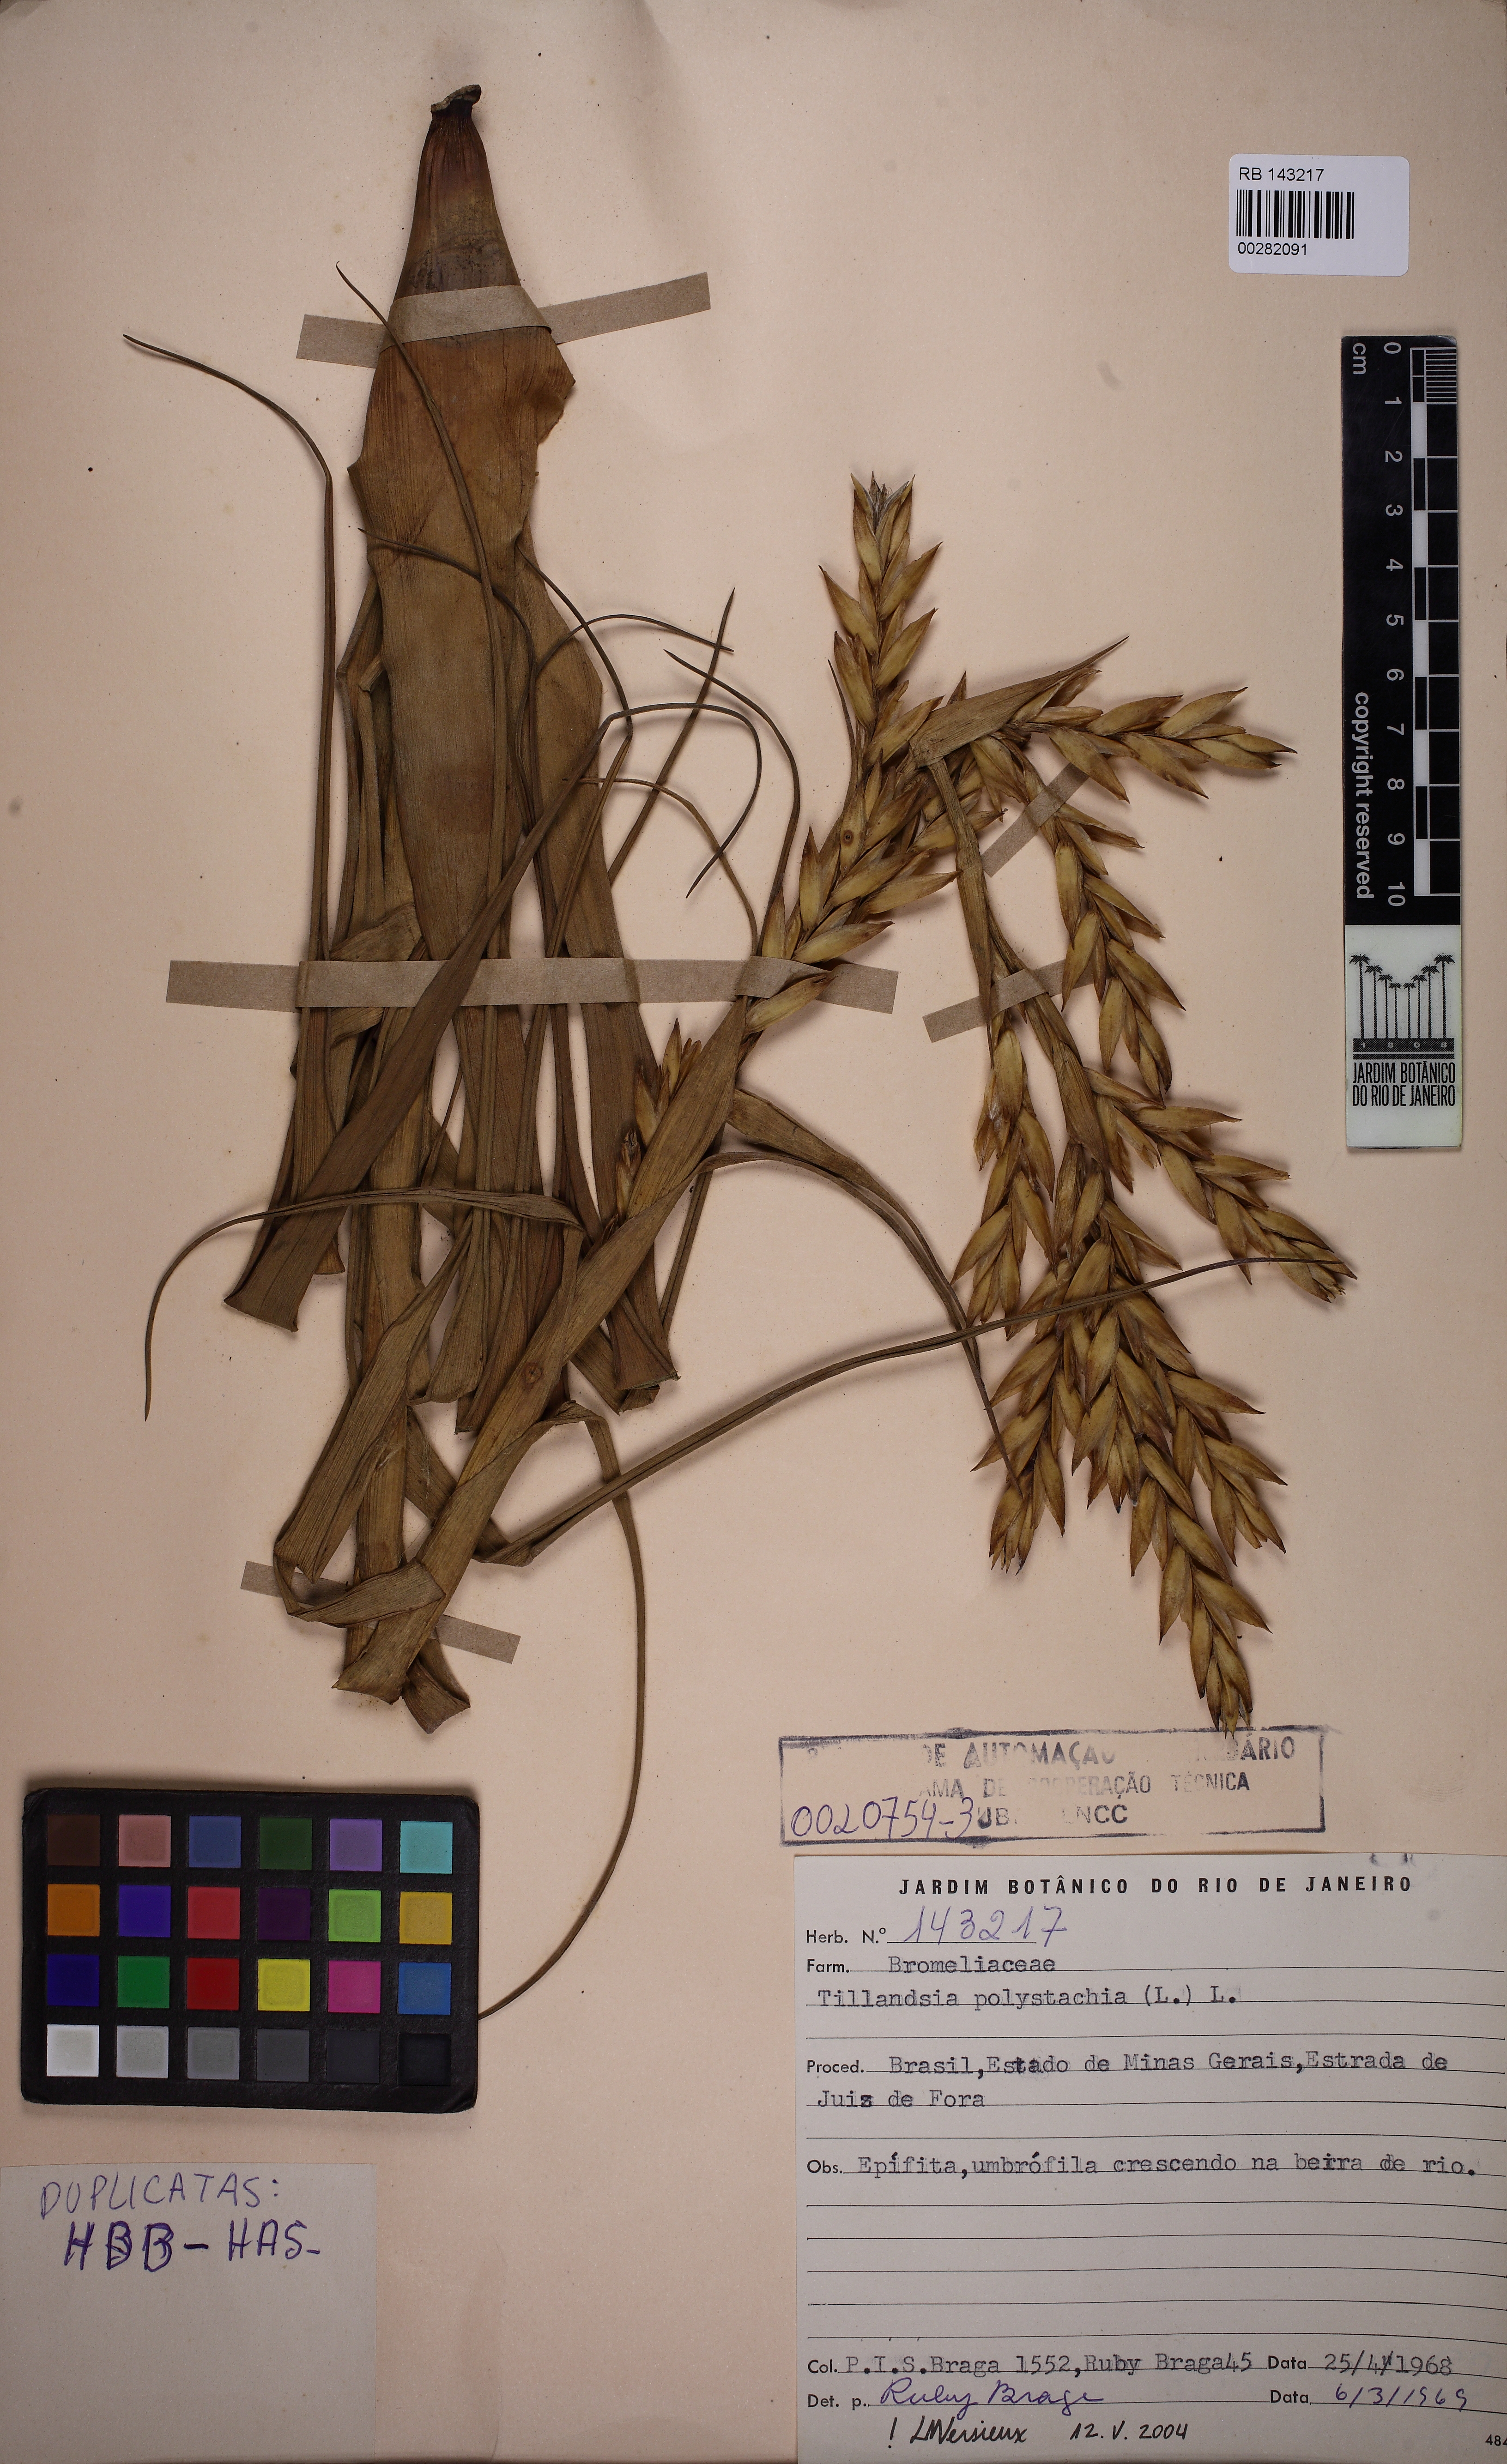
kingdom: Plantae
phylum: Tracheophyta
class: Liliopsida
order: Poales
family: Bromeliaceae
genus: Tillandsia
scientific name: Tillandsia polystachia
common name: Airplant
